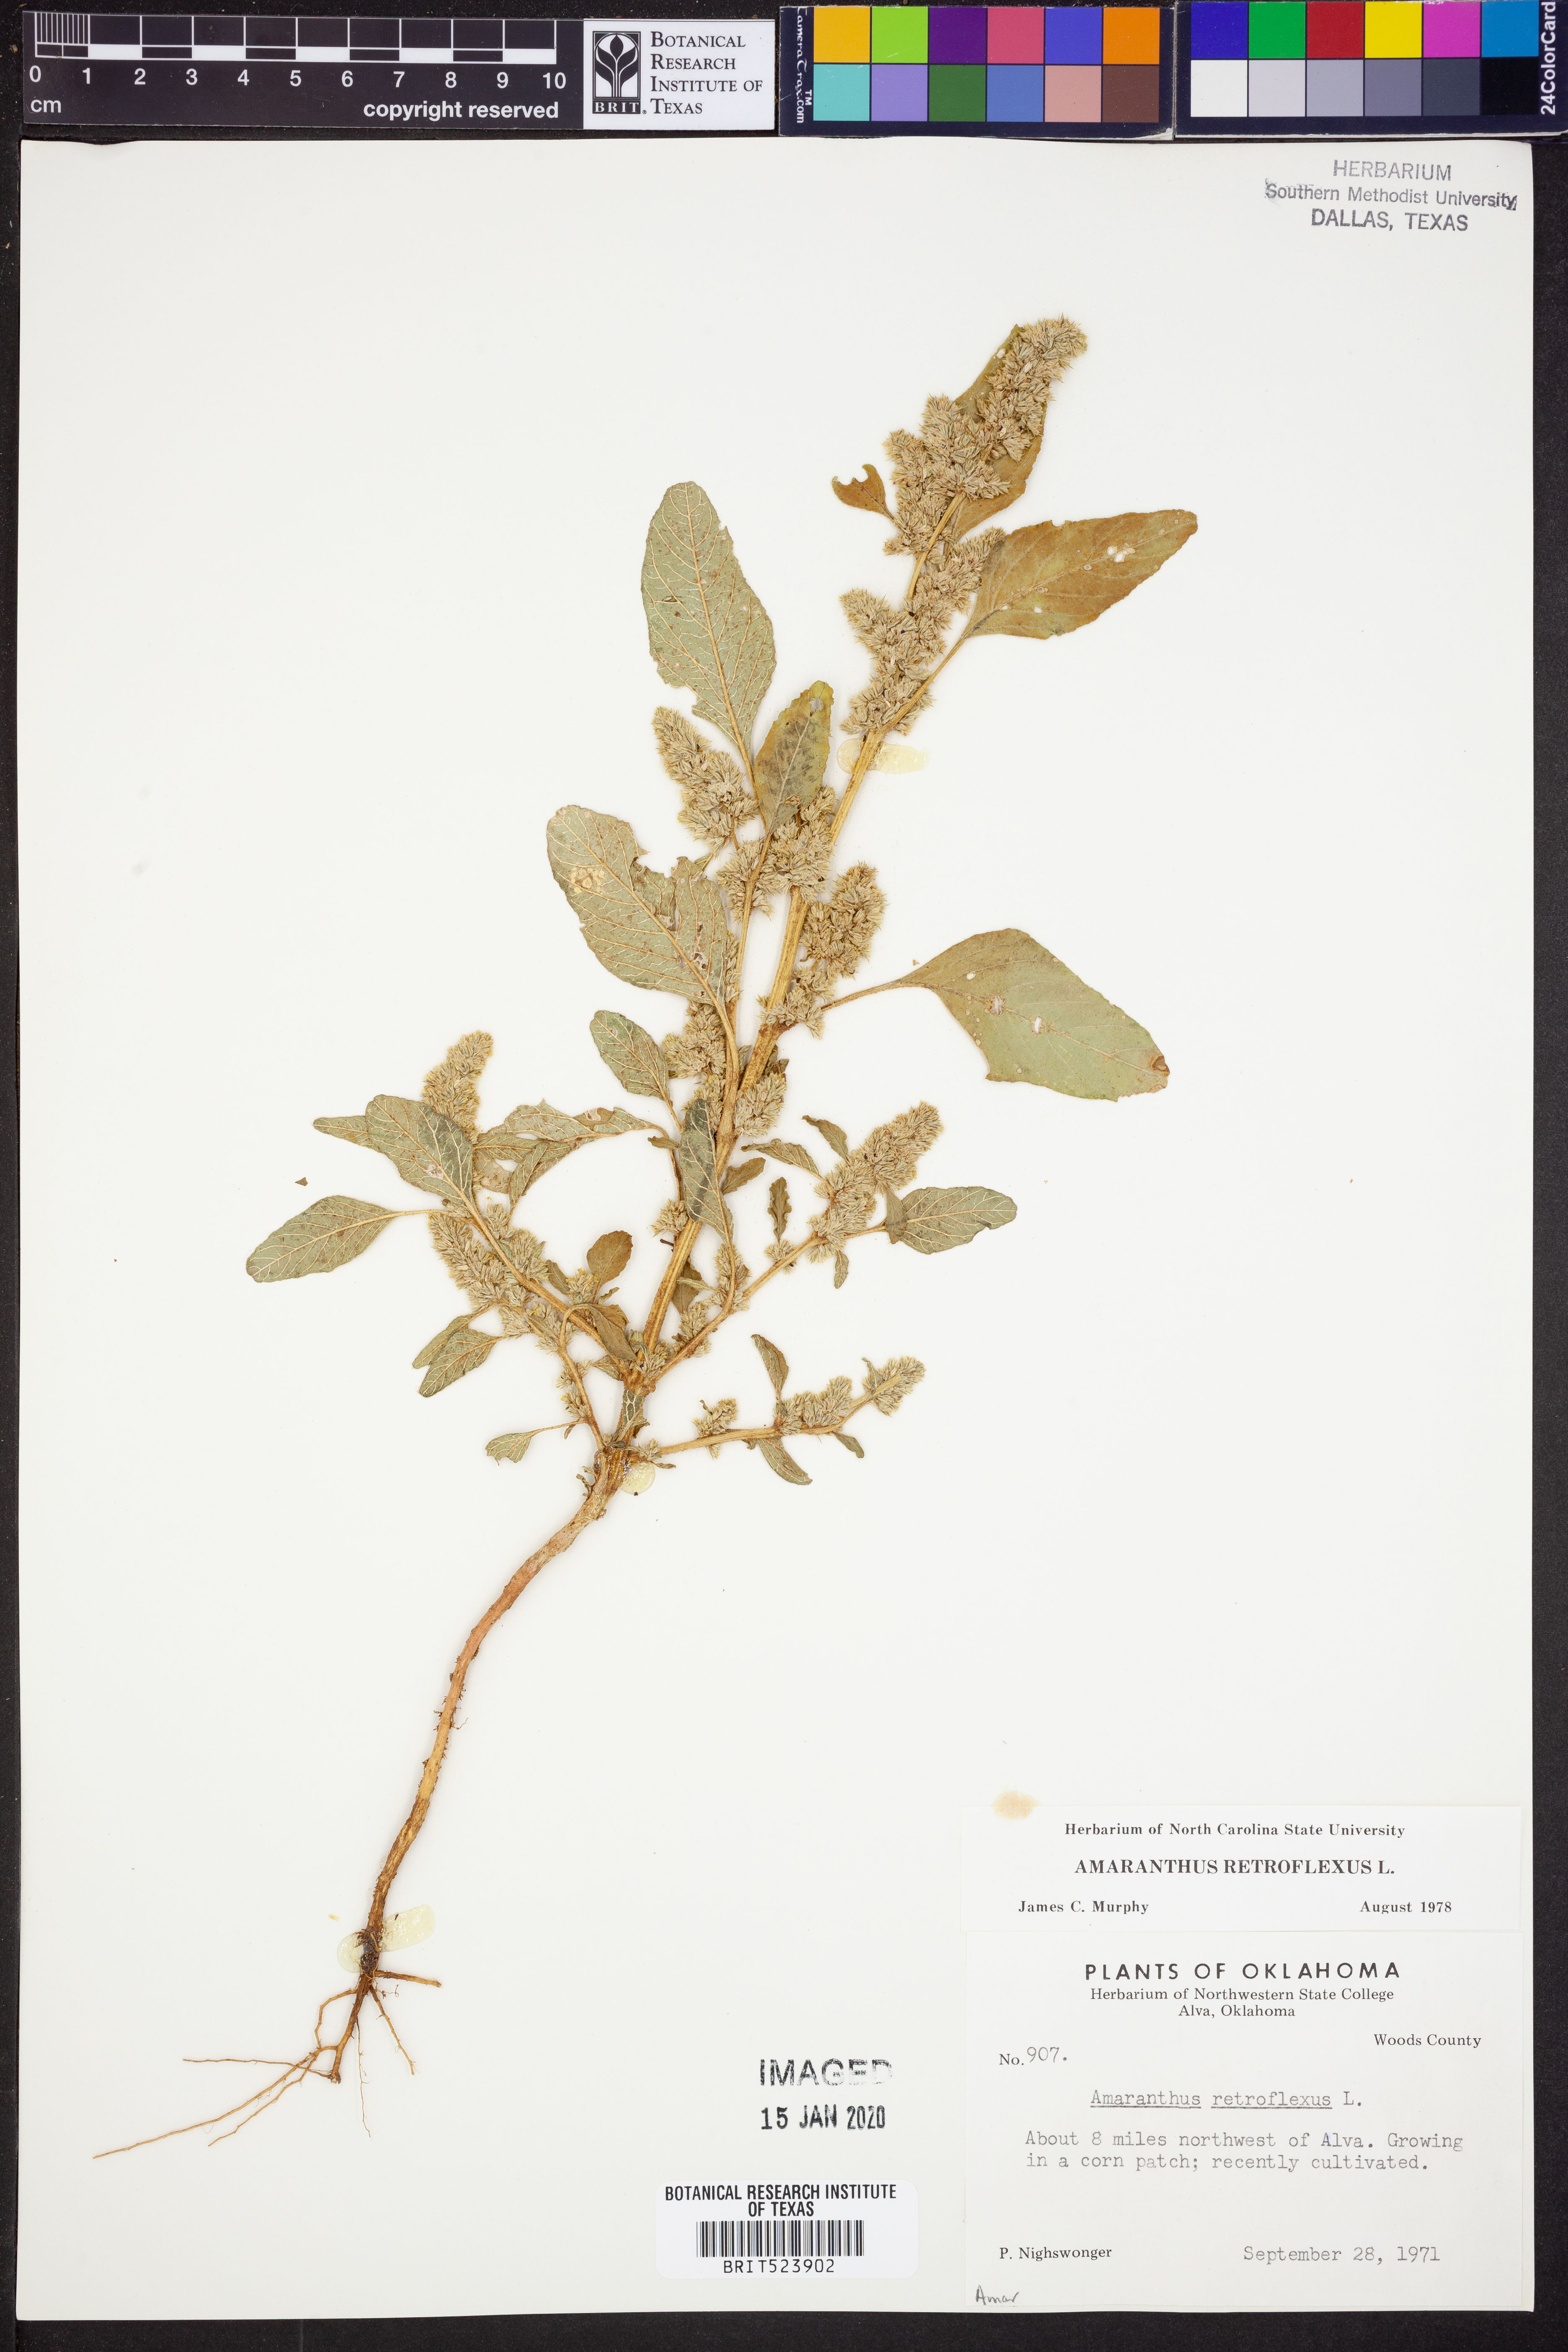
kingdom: Plantae
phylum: Tracheophyta
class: Magnoliopsida
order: Caryophyllales
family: Amaranthaceae
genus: Amaranthus
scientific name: Amaranthus retroflexus
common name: Redroot amaranth
